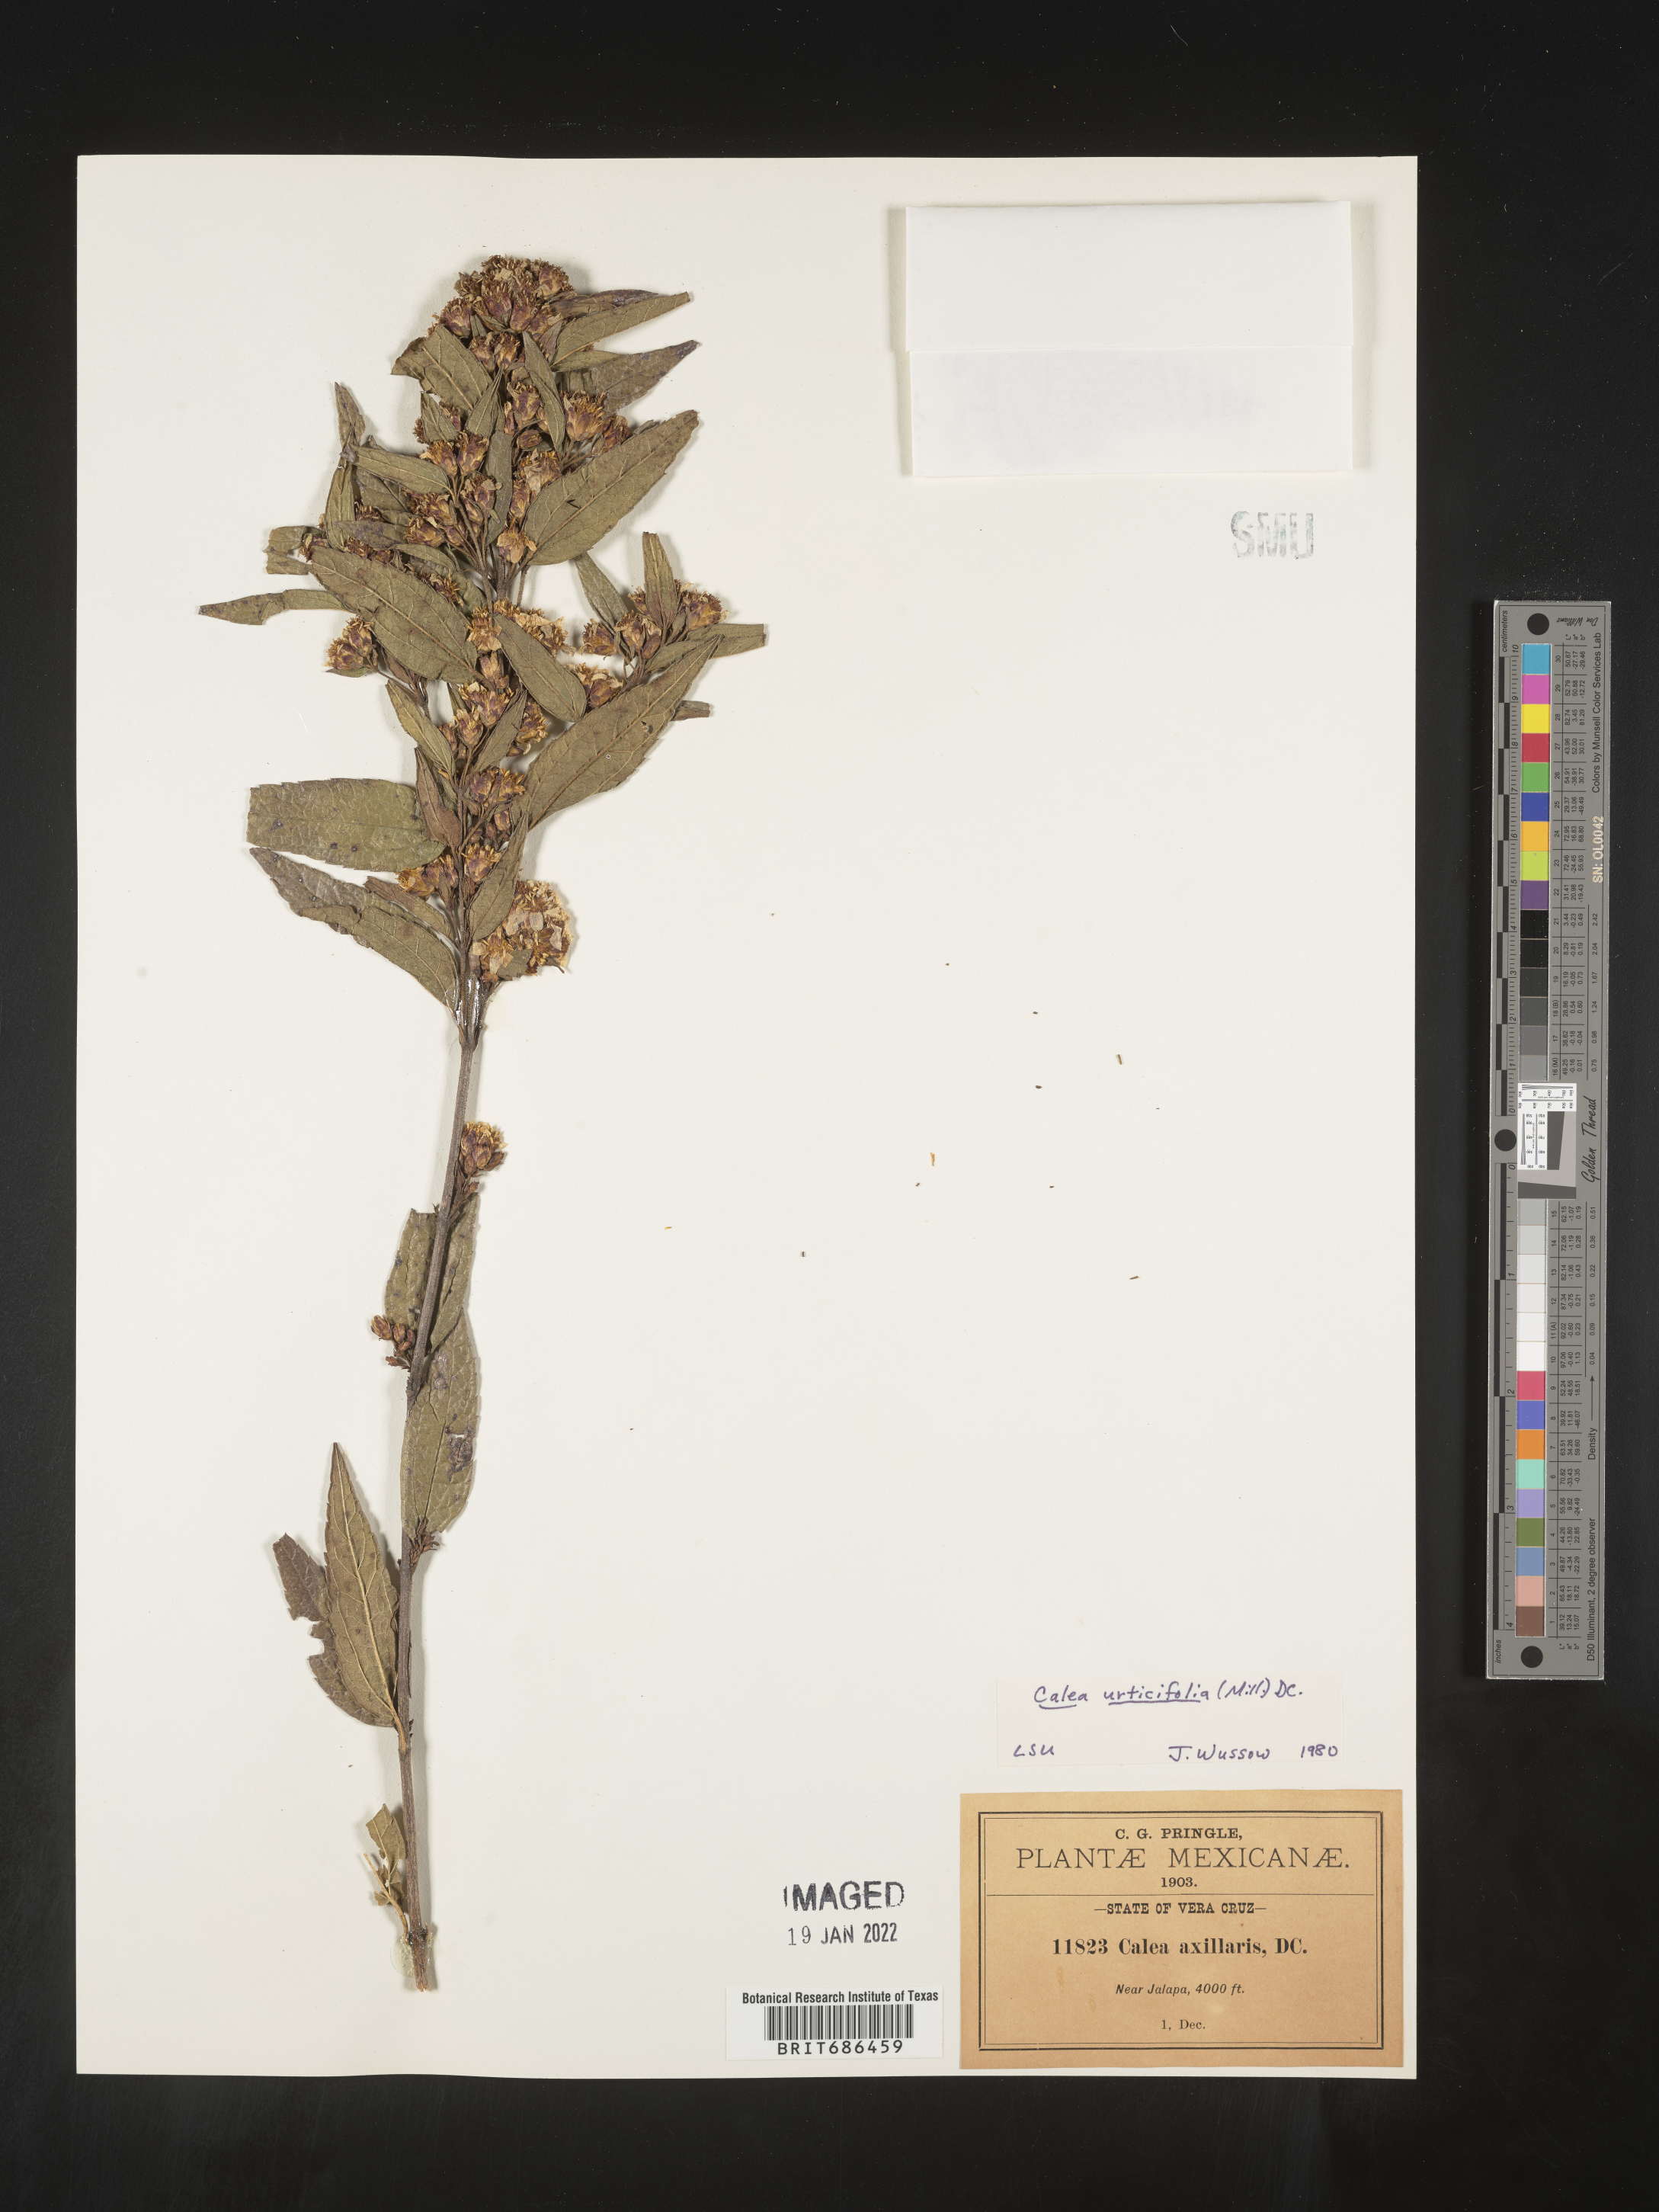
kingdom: Plantae
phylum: Tracheophyta
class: Magnoliopsida
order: Asterales
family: Asteraceae
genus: Calea
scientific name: Calea
